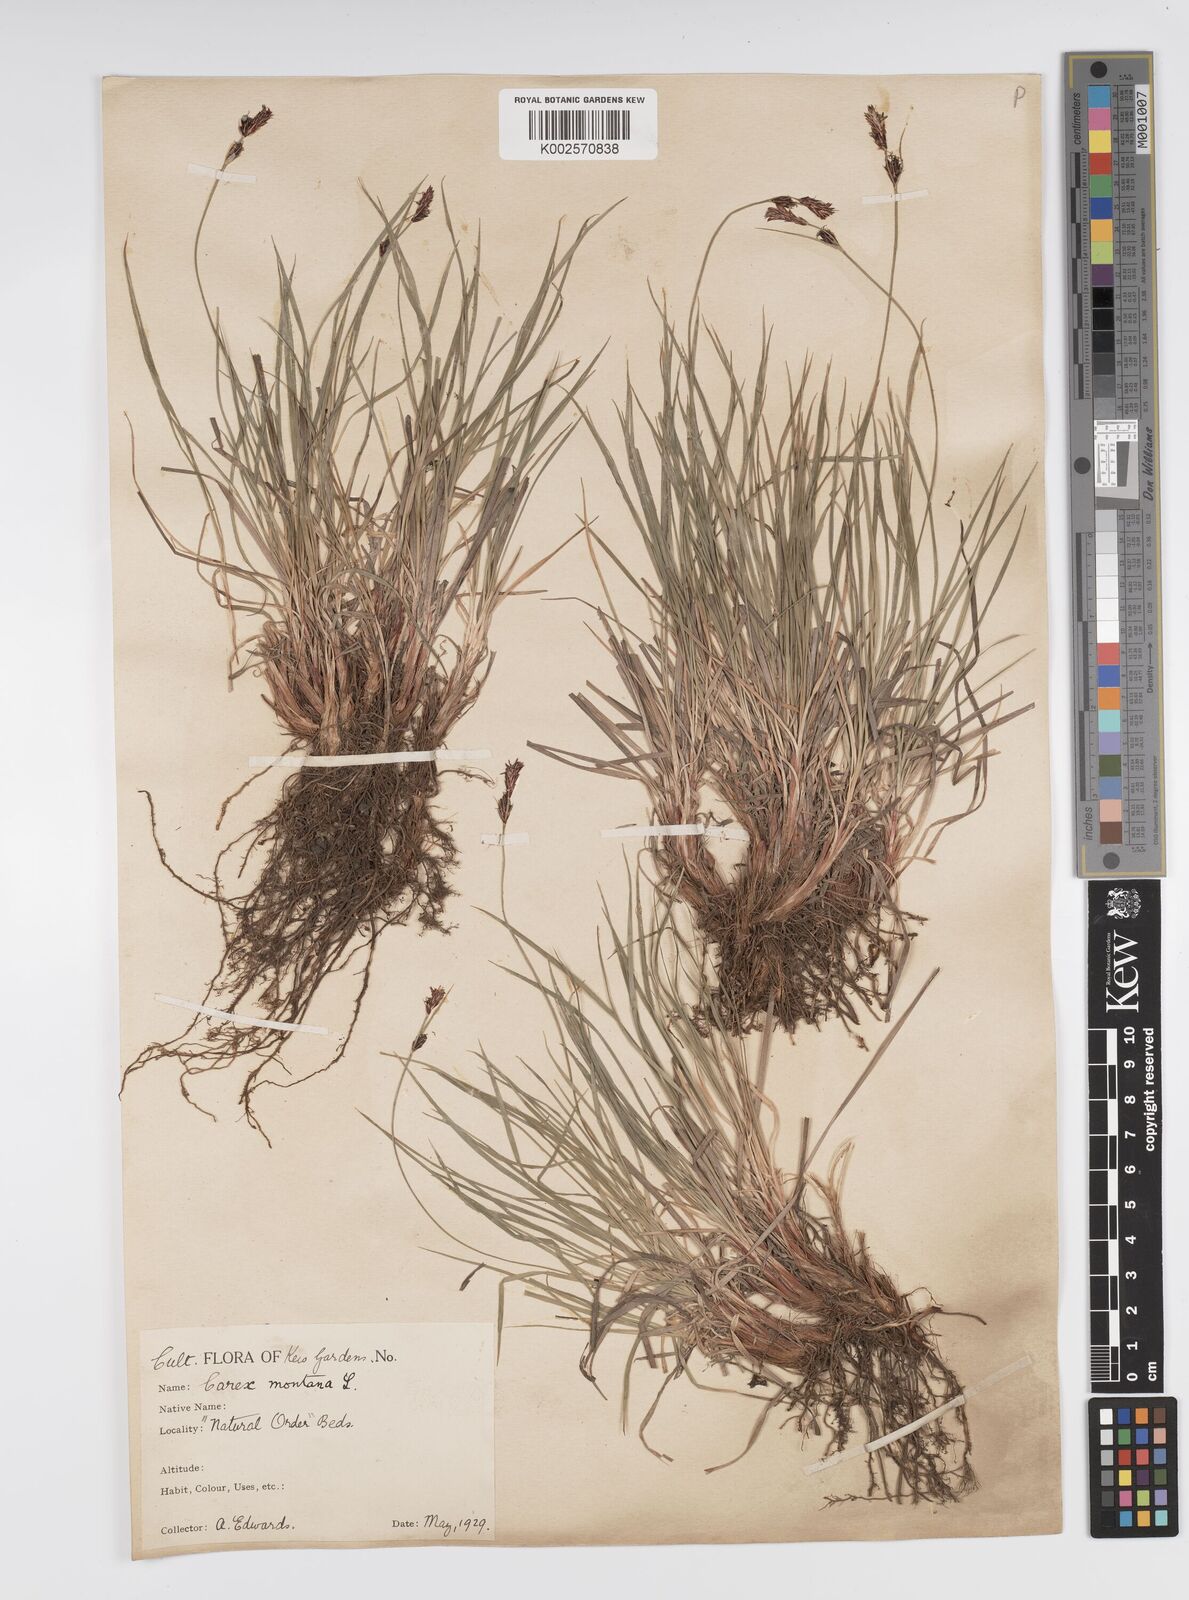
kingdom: Plantae
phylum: Tracheophyta
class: Liliopsida
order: Poales
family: Cyperaceae
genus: Carex
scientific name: Carex montana
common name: Soft-leaved sedge
